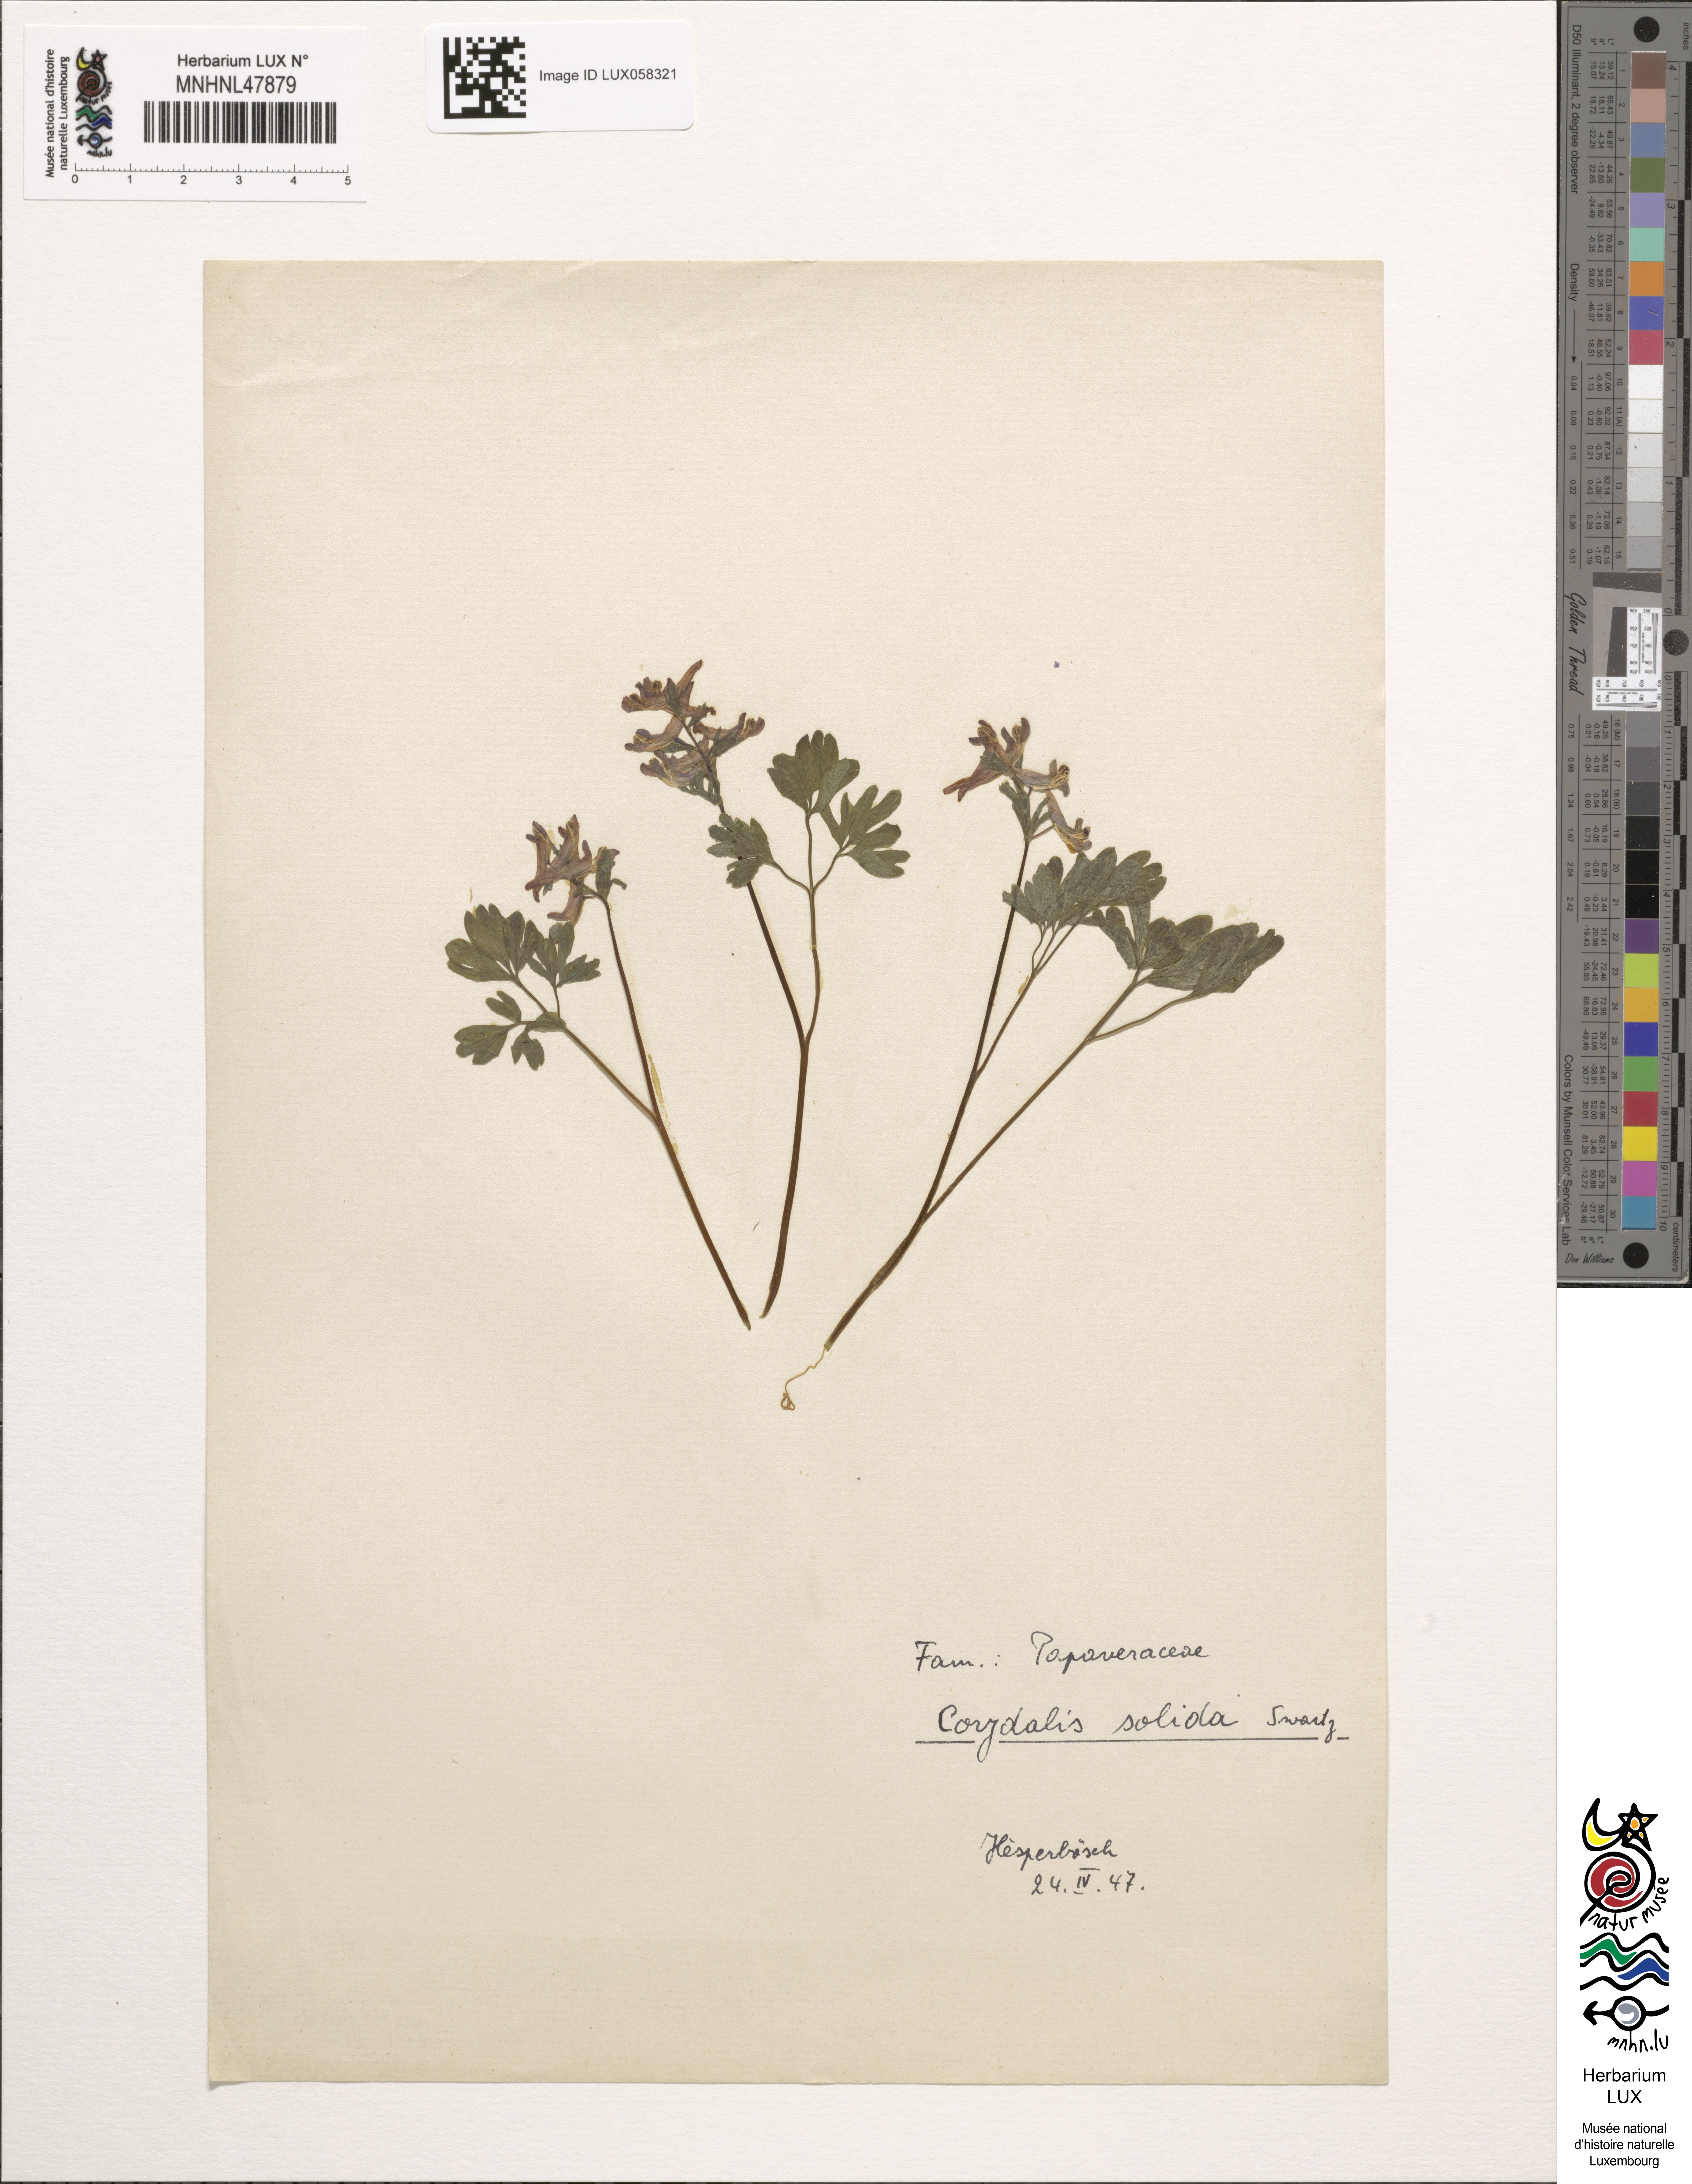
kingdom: Plantae
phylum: Tracheophyta
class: Magnoliopsida
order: Ranunculales
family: Papaveraceae
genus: Corydalis
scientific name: Corydalis solida
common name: Bird-in-a-bush
